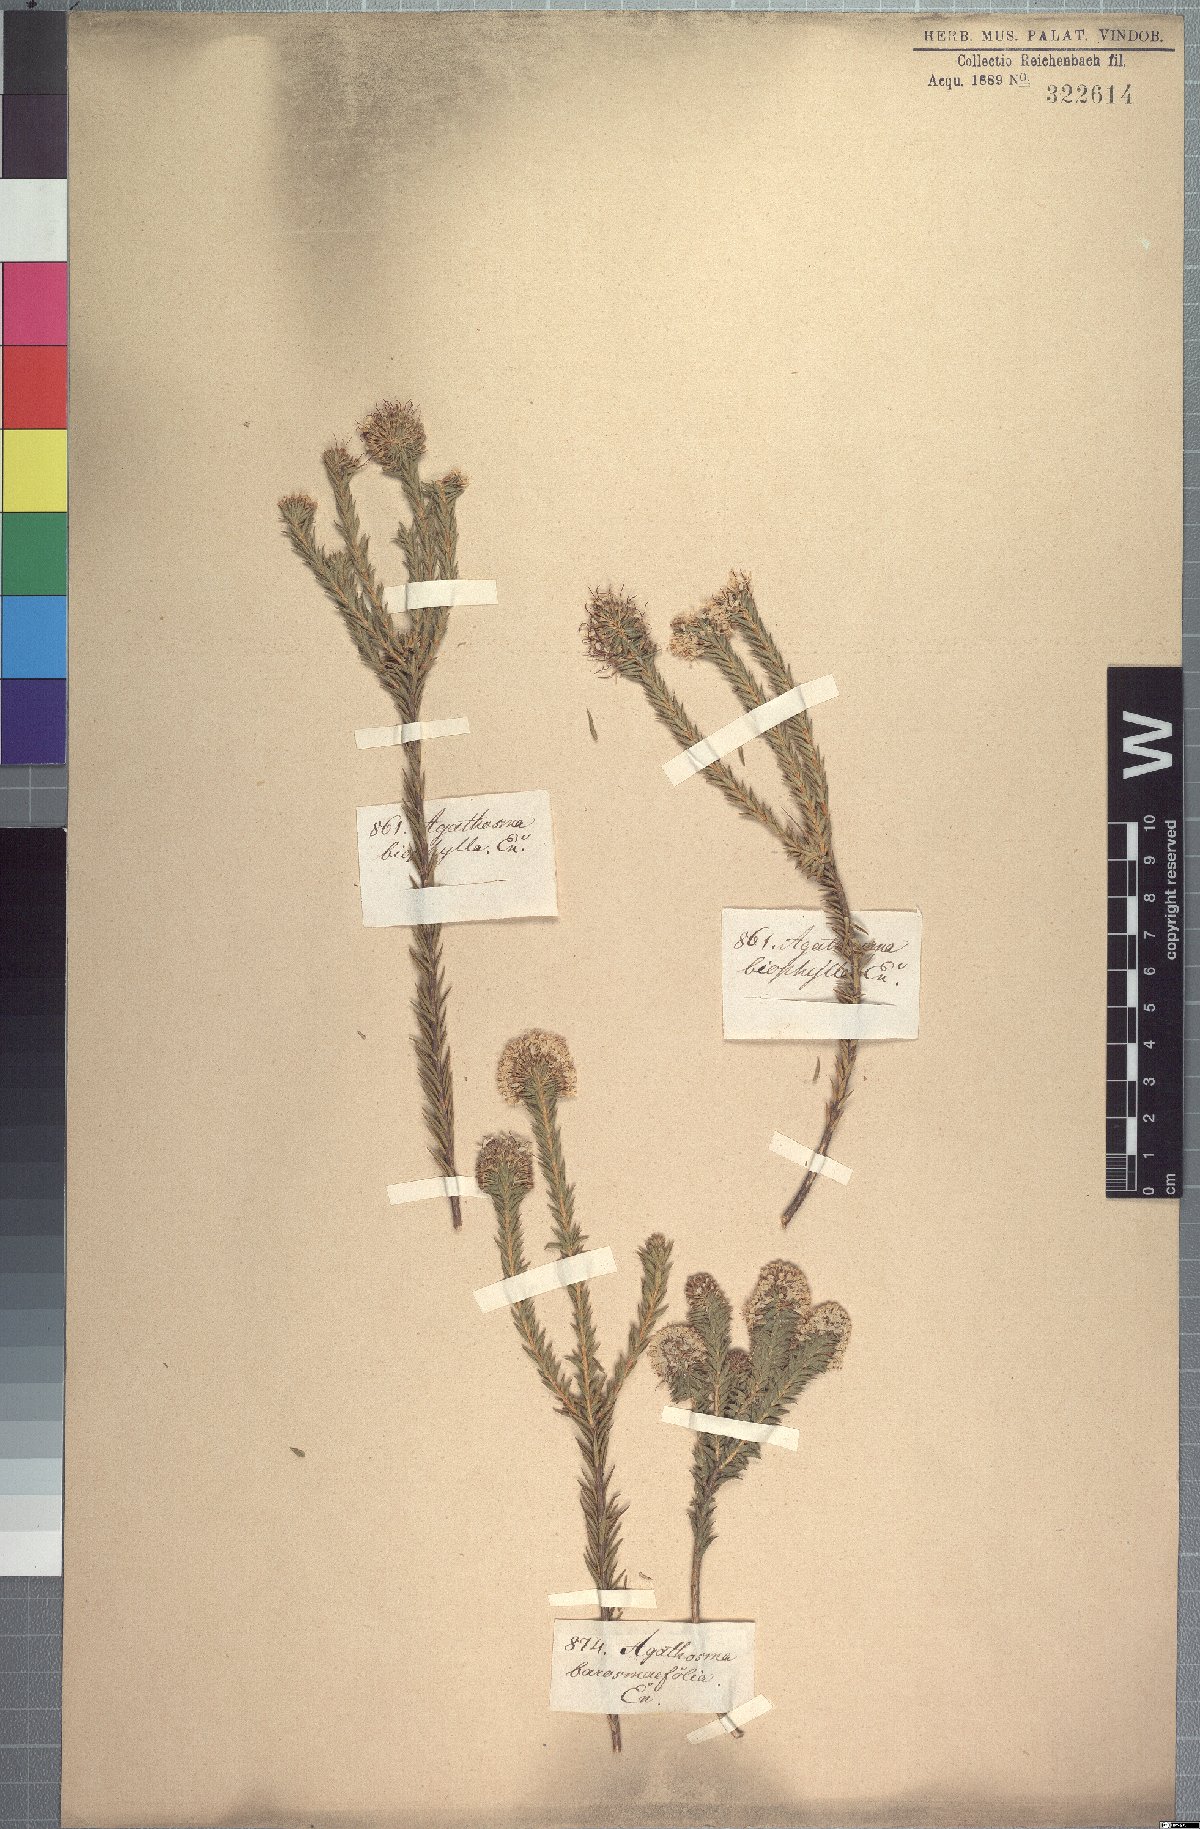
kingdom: Plantae
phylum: Tracheophyta
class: Magnoliopsida
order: Sapindales
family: Rutaceae
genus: Agathosma
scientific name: Agathosma adenocaulis
